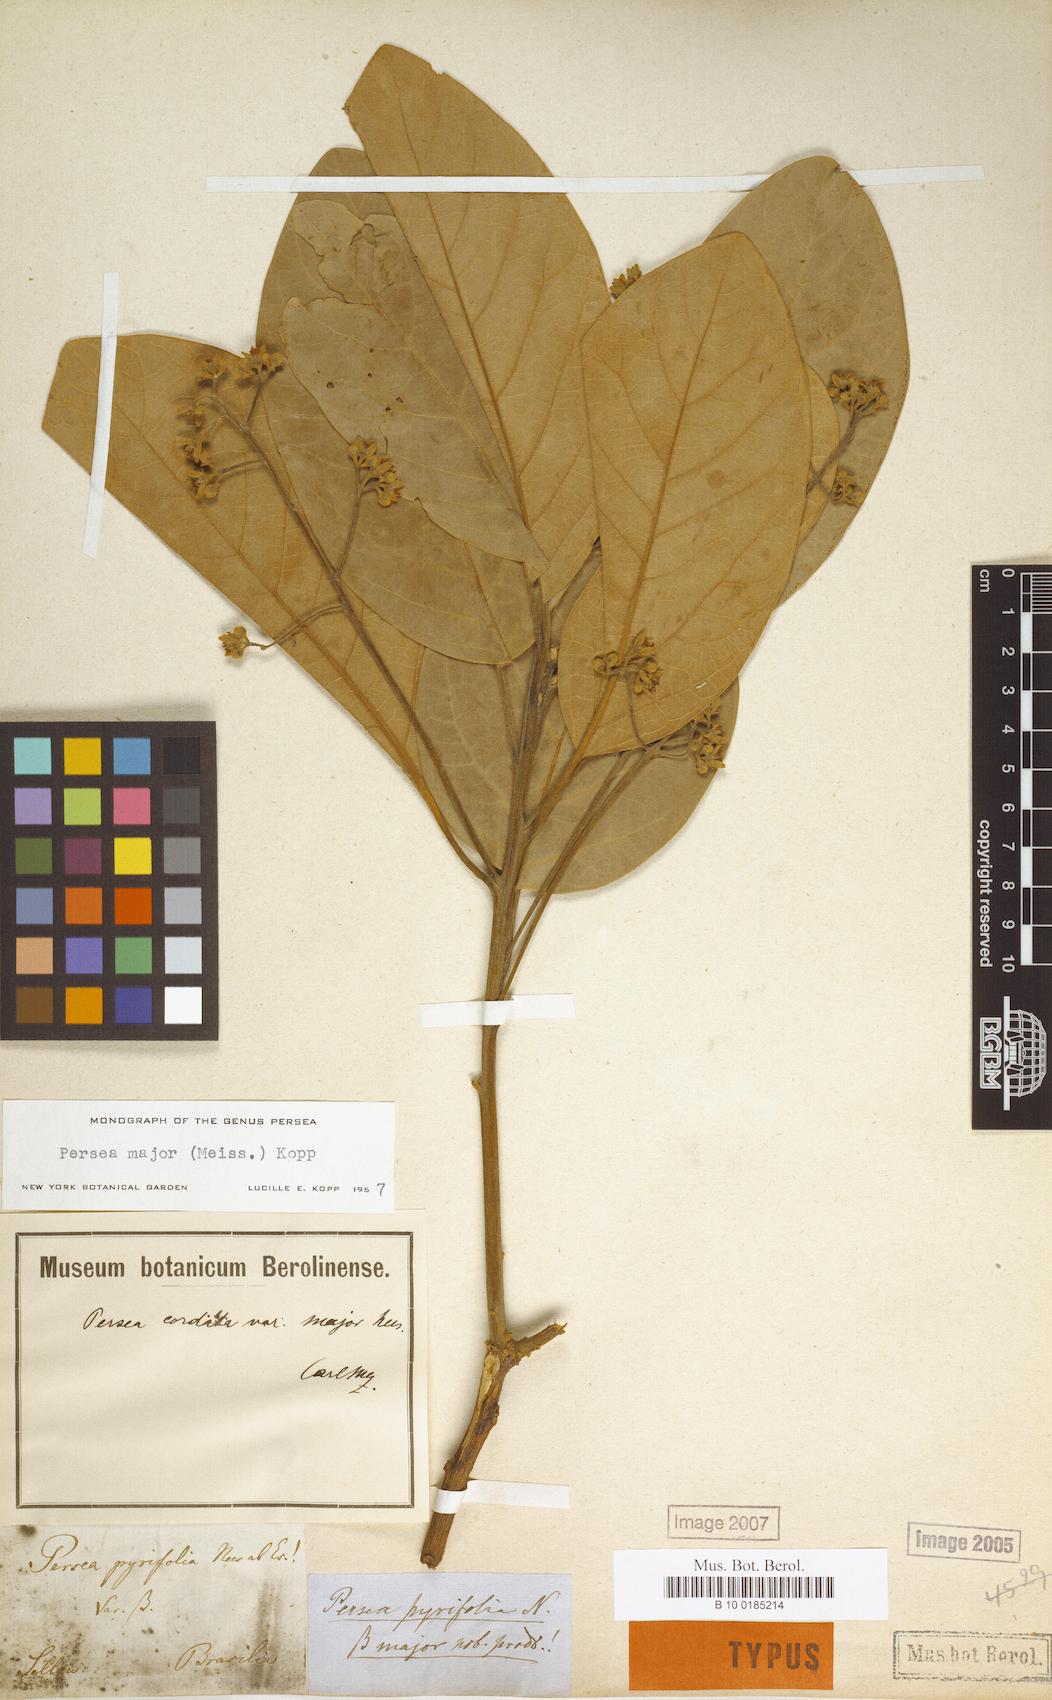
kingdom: Plantae
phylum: Tracheophyta
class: Magnoliopsida
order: Laurales
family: Lauraceae
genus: Persea
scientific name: Persea major
